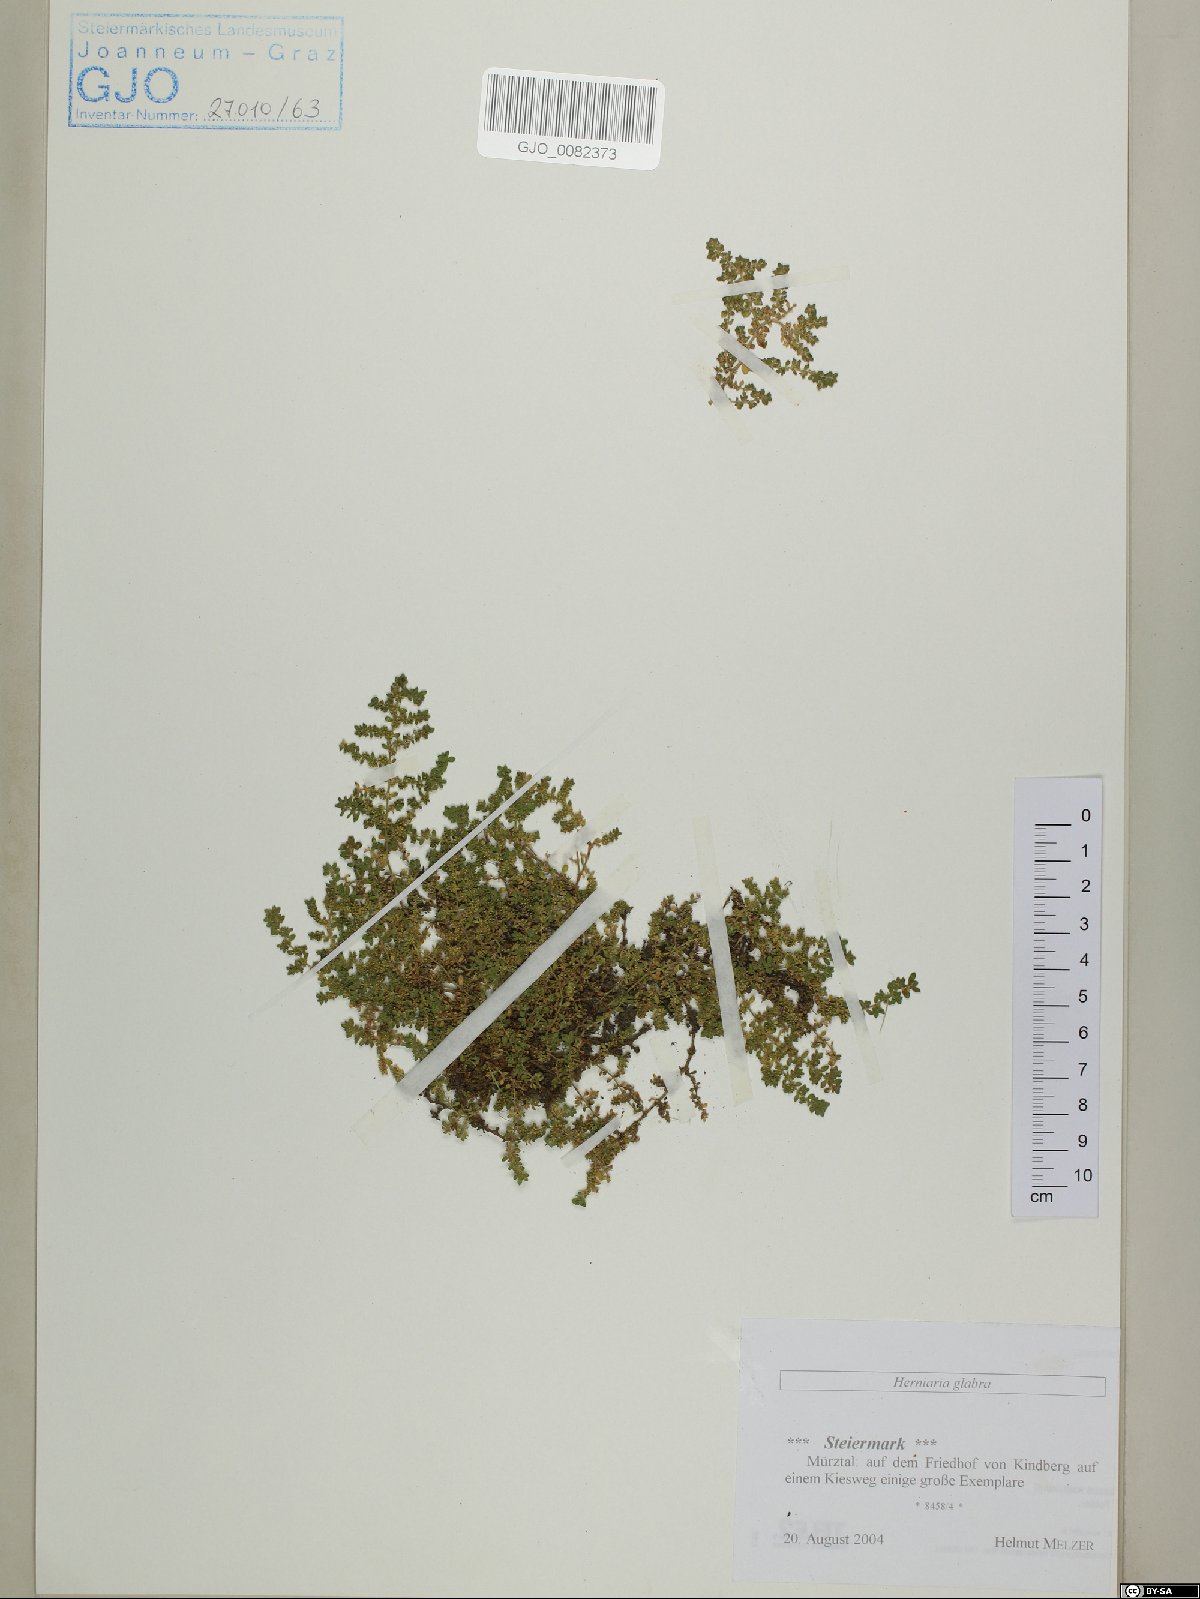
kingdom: Plantae
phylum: Tracheophyta
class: Magnoliopsida
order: Caryophyllales
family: Caryophyllaceae
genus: Herniaria
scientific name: Herniaria glabra
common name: Smooth rupturewort
